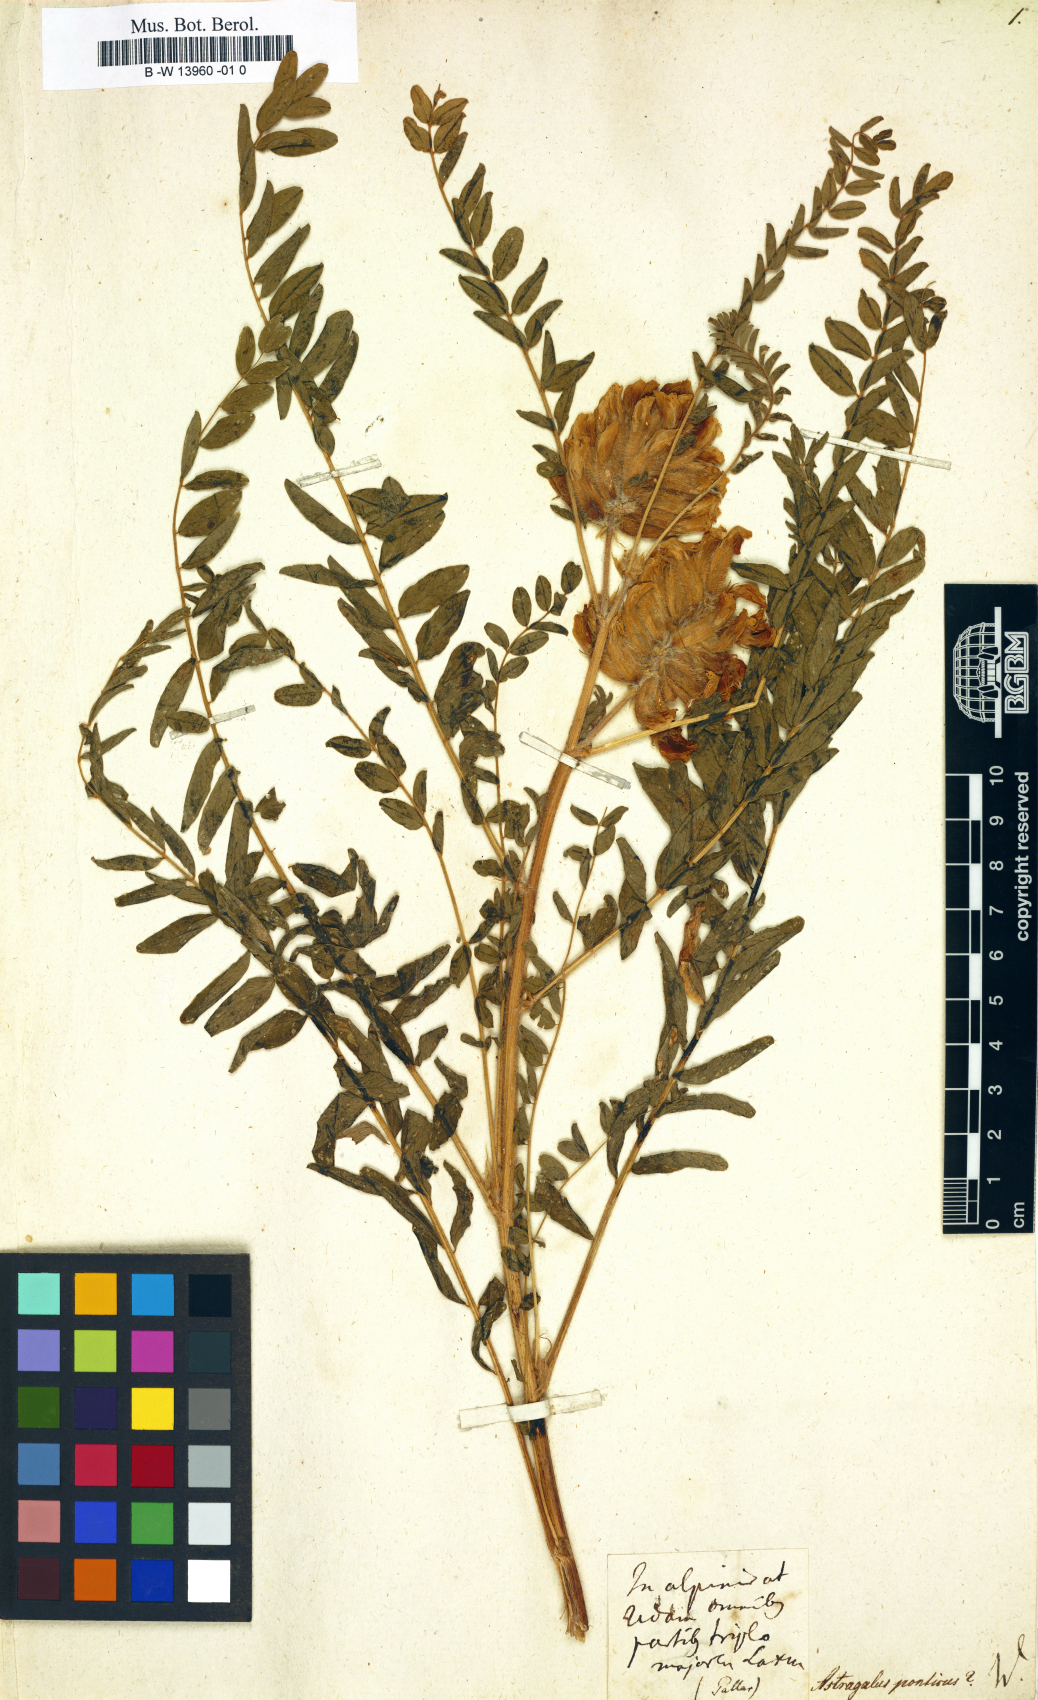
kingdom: Plantae
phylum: Tracheophyta
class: Magnoliopsida
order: Fabales
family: Fabaceae
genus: Astragalus
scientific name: Astragalus ponticus
